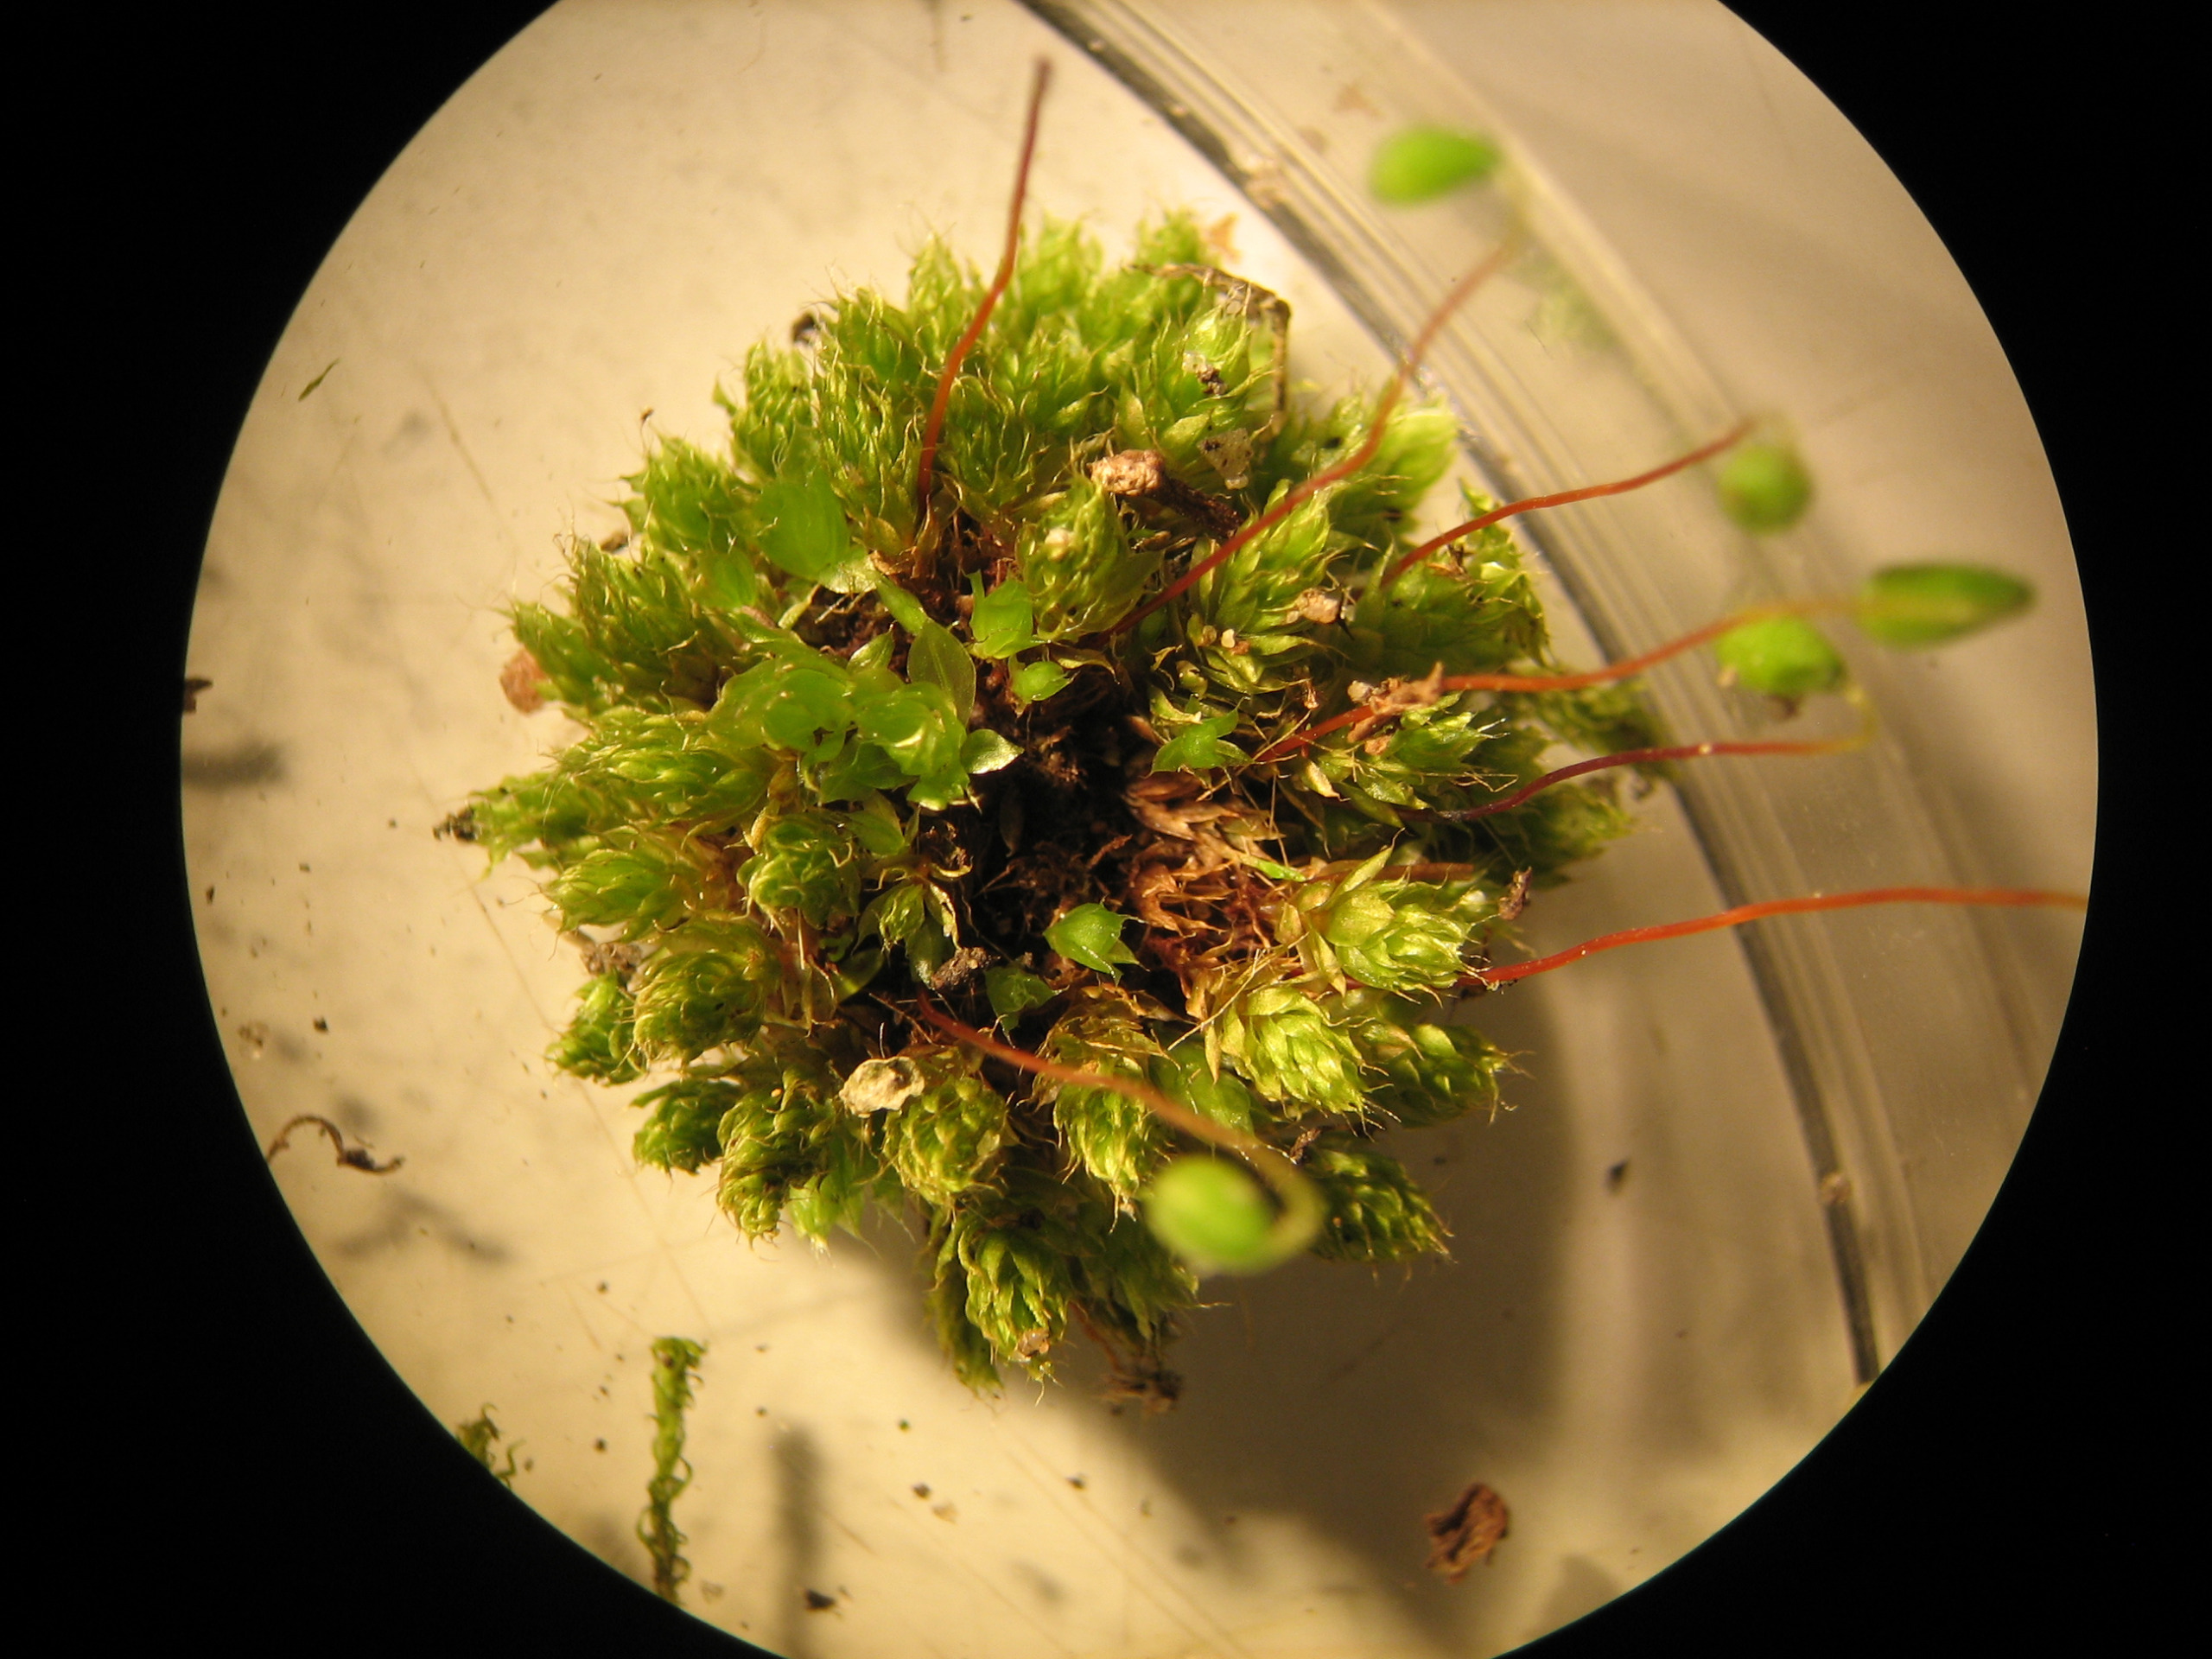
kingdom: Plantae
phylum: Bryophyta
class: Bryopsida
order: Bryales
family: Bryaceae
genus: Rosulabryum
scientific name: Rosulabryum capillare
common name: Hårspidset bryum
